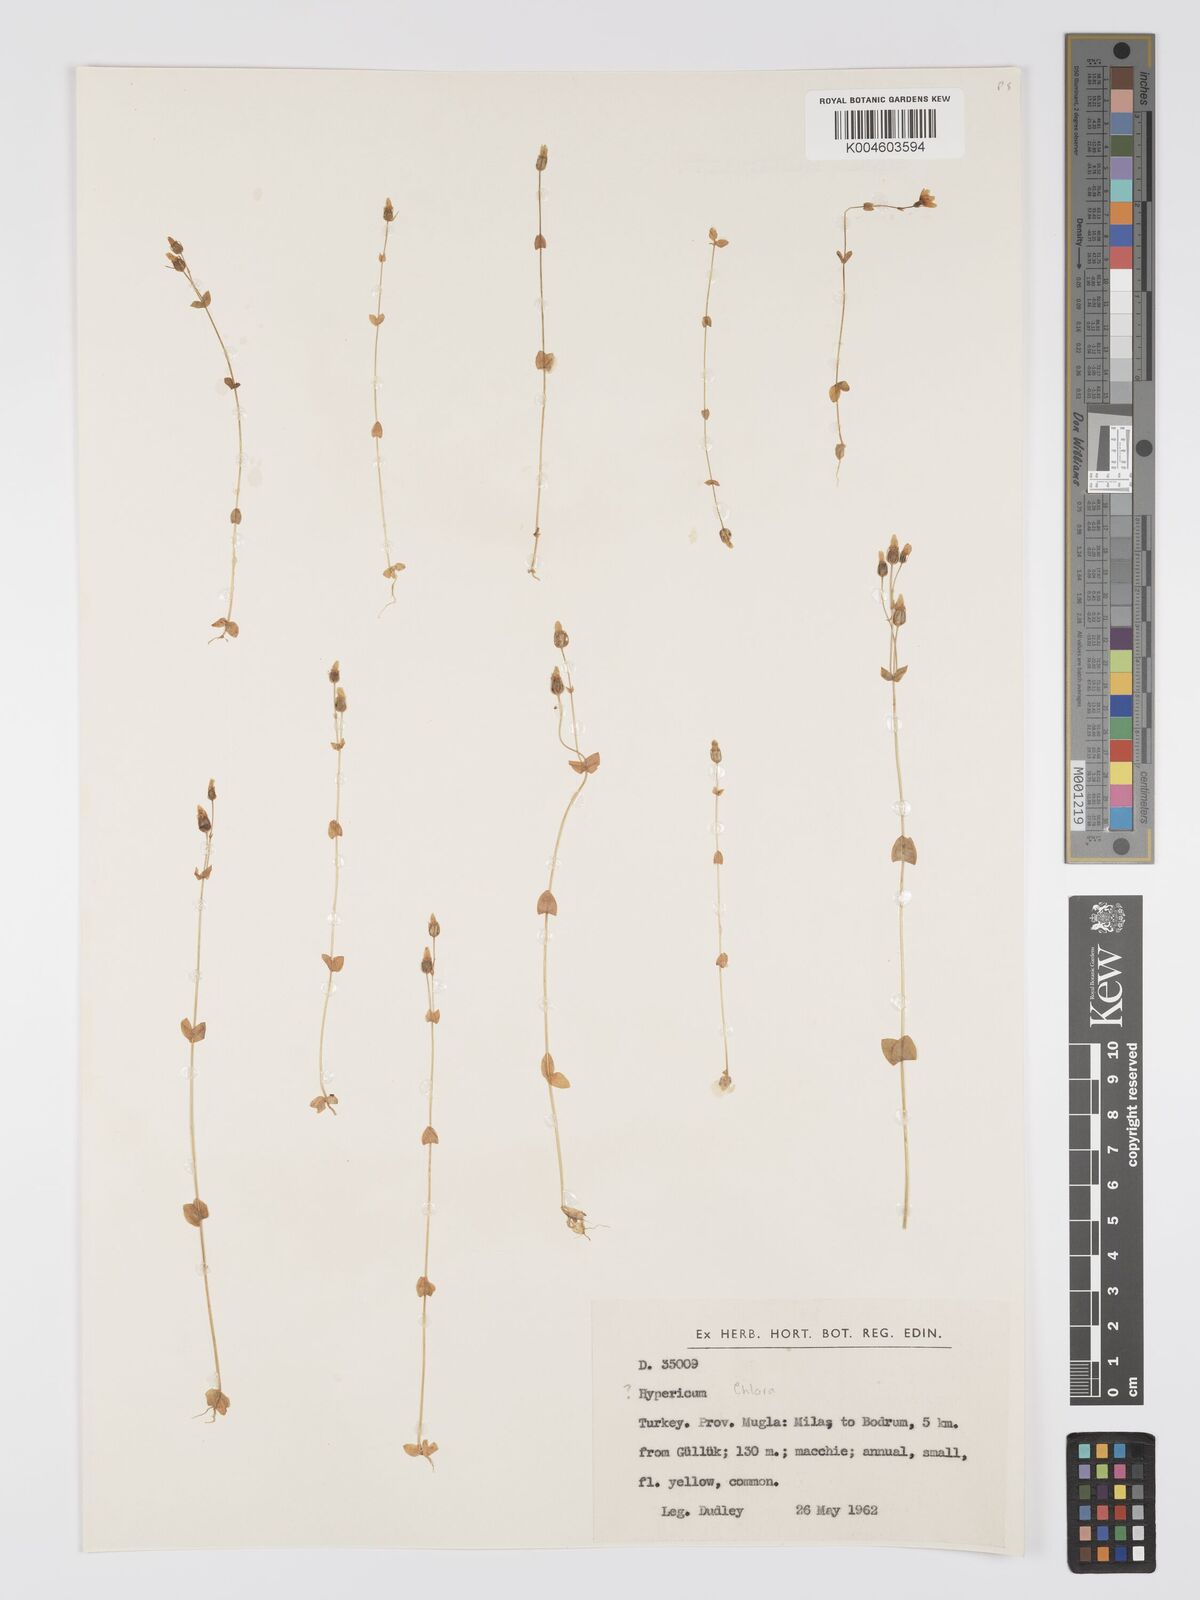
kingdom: Plantae
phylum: Tracheophyta
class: Magnoliopsida
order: Gentianales
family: Gentianaceae
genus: Blackstonia
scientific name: Blackstonia perfoliata
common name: Yellow-wort
